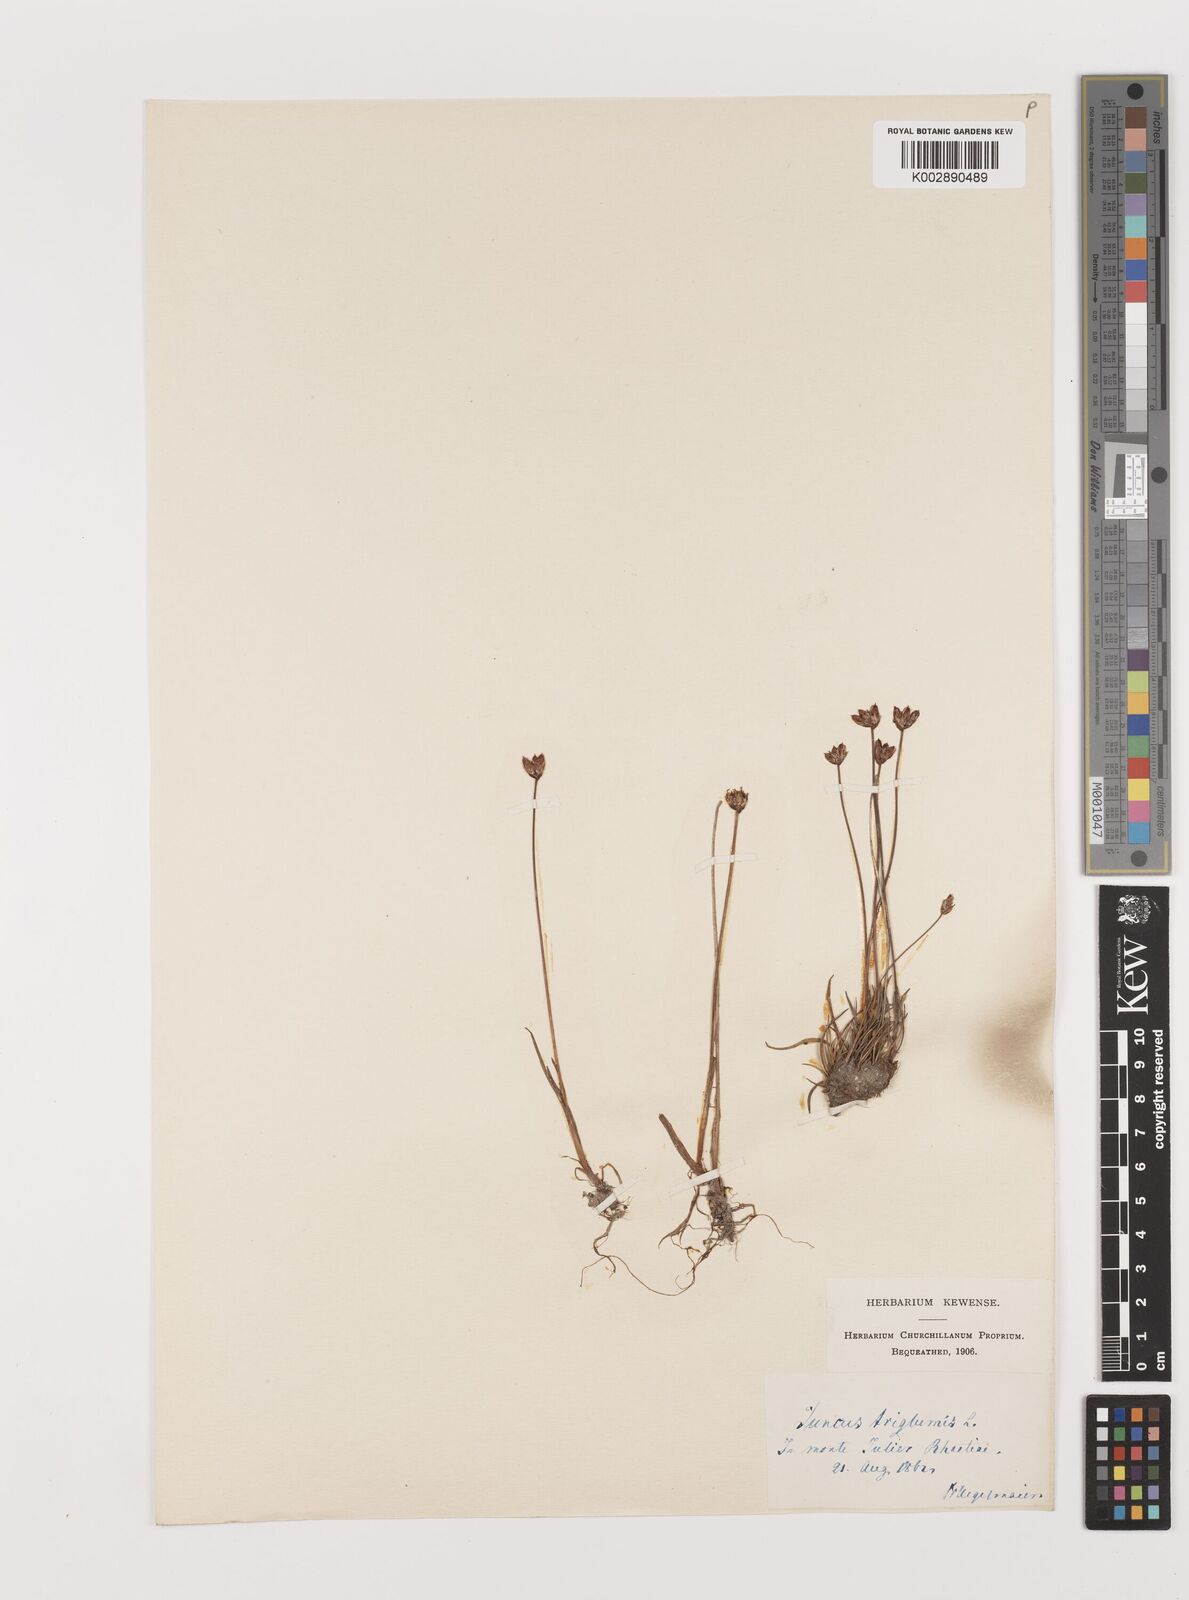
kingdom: Plantae
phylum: Tracheophyta
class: Liliopsida
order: Poales
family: Juncaceae
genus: Juncus
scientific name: Juncus triglumis
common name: Three-flowered rush
